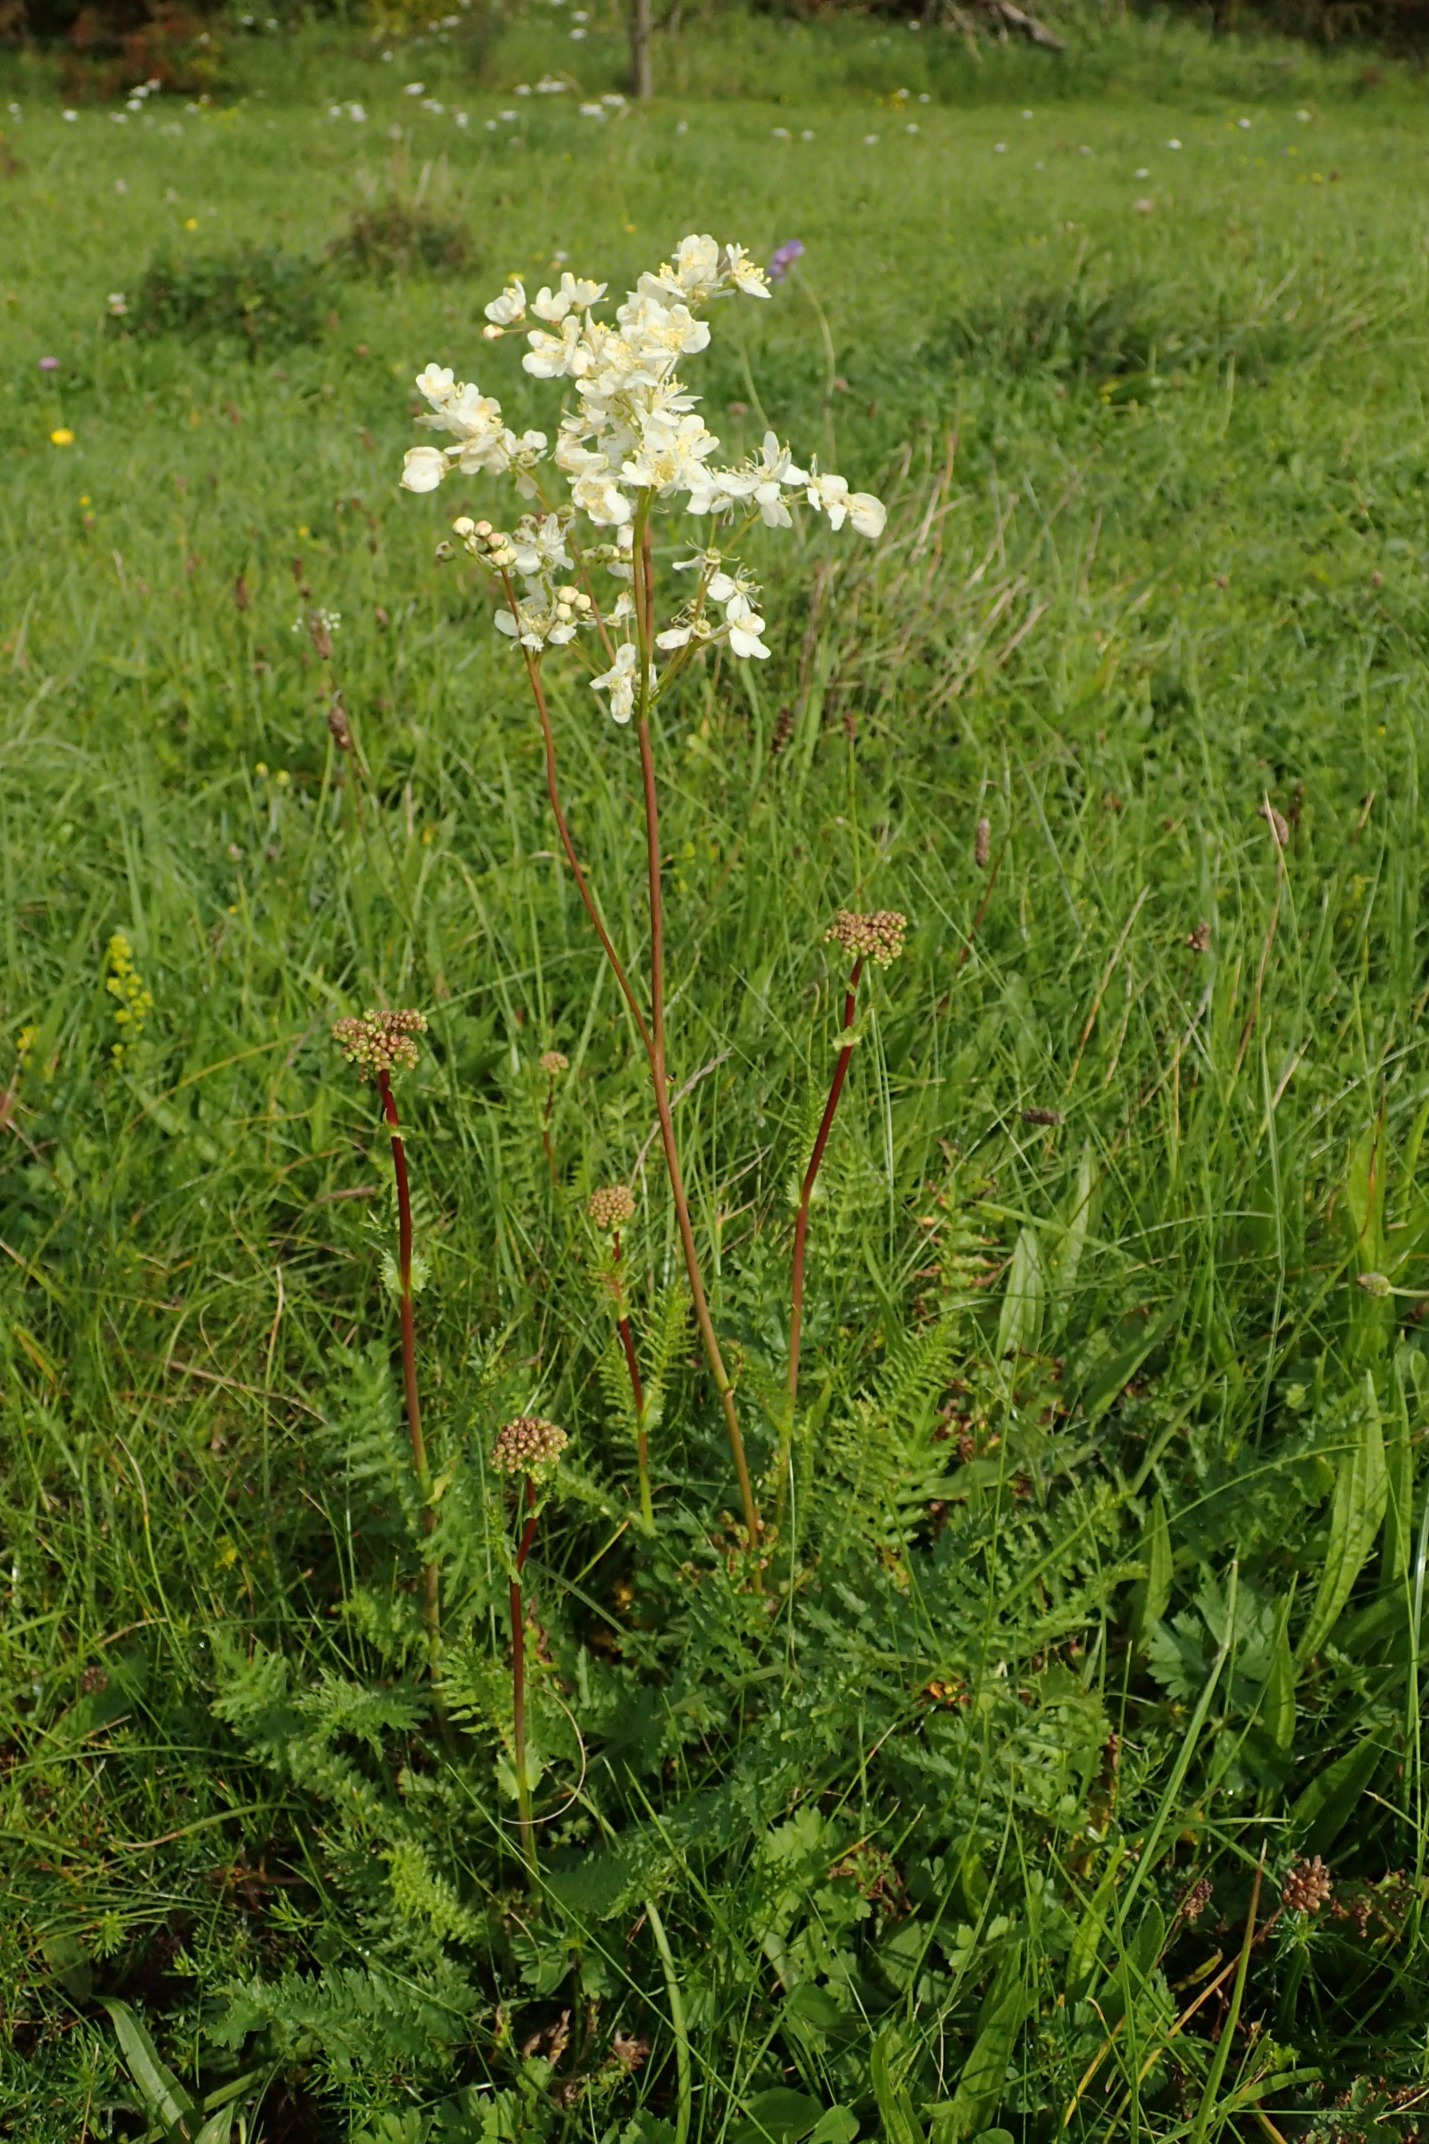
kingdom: Plantae
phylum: Tracheophyta
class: Magnoliopsida
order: Rosales
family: Rosaceae
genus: Filipendula
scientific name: Filipendula vulgaris
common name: Knoldet mjødurt
